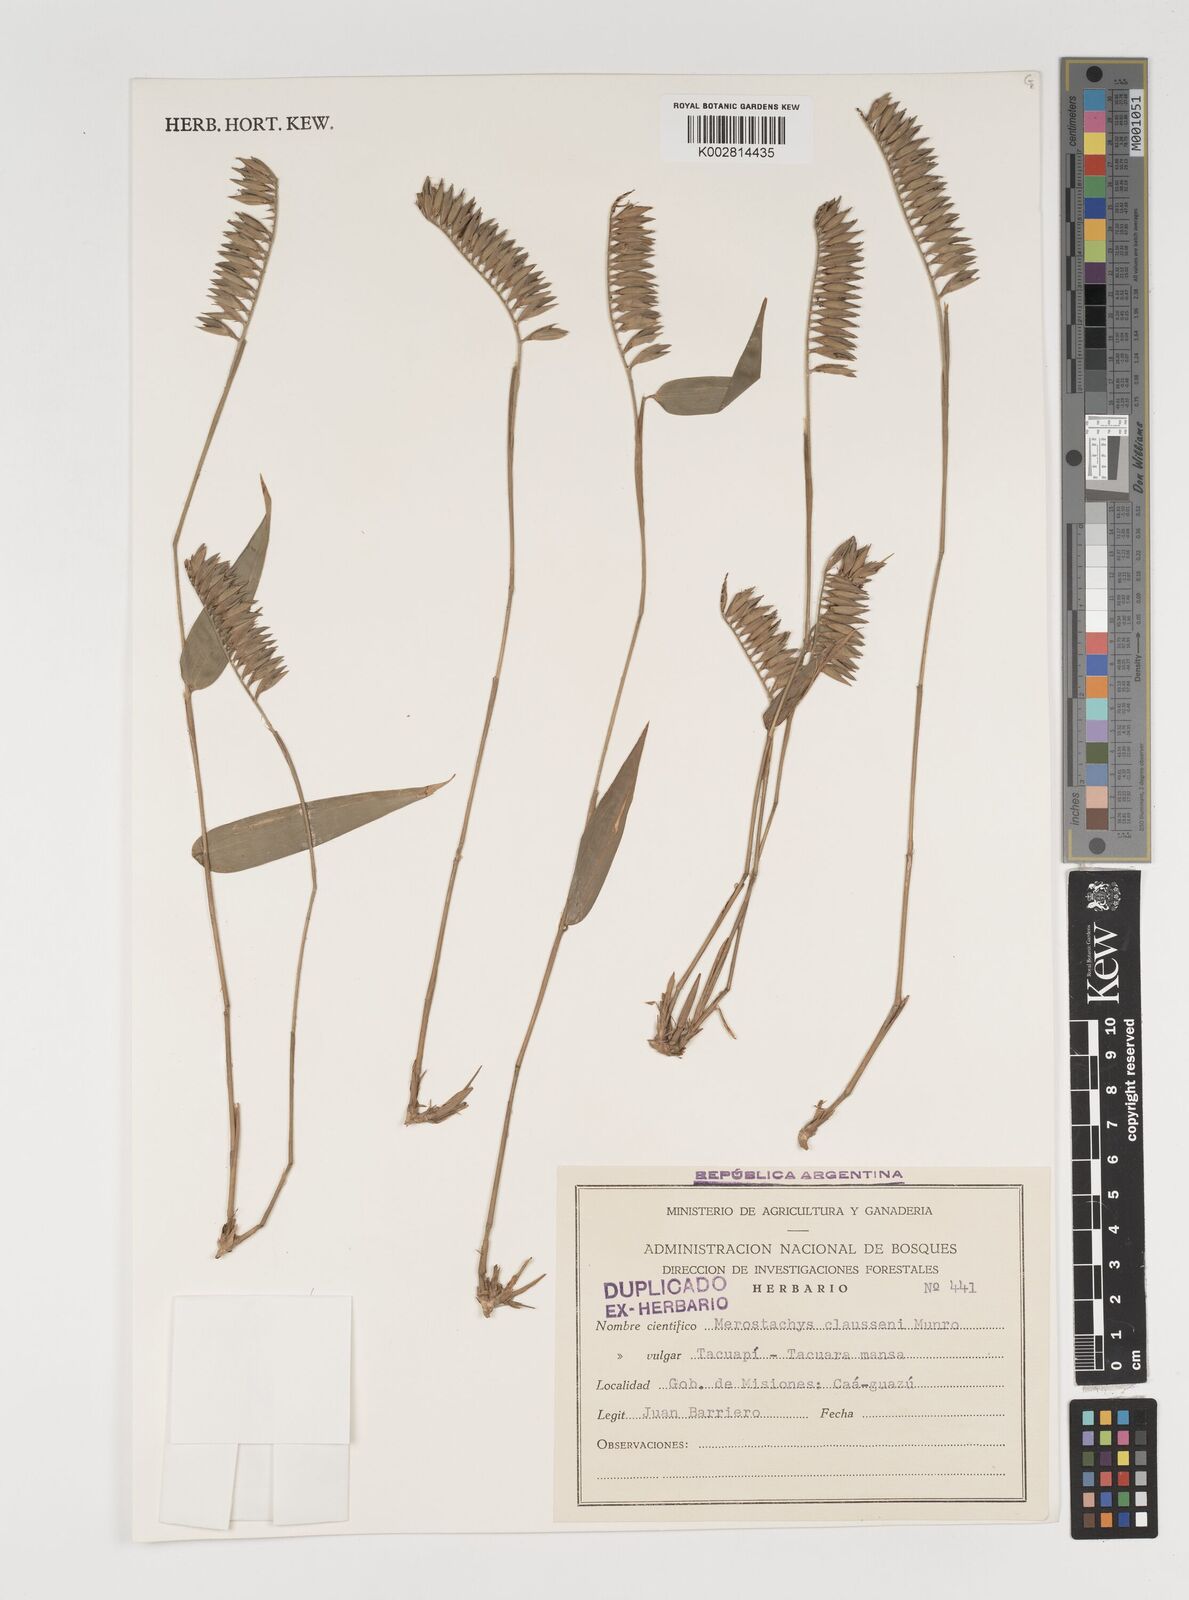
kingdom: Plantae
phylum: Tracheophyta
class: Liliopsida
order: Poales
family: Poaceae
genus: Merostachys
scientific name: Merostachys claussenii
